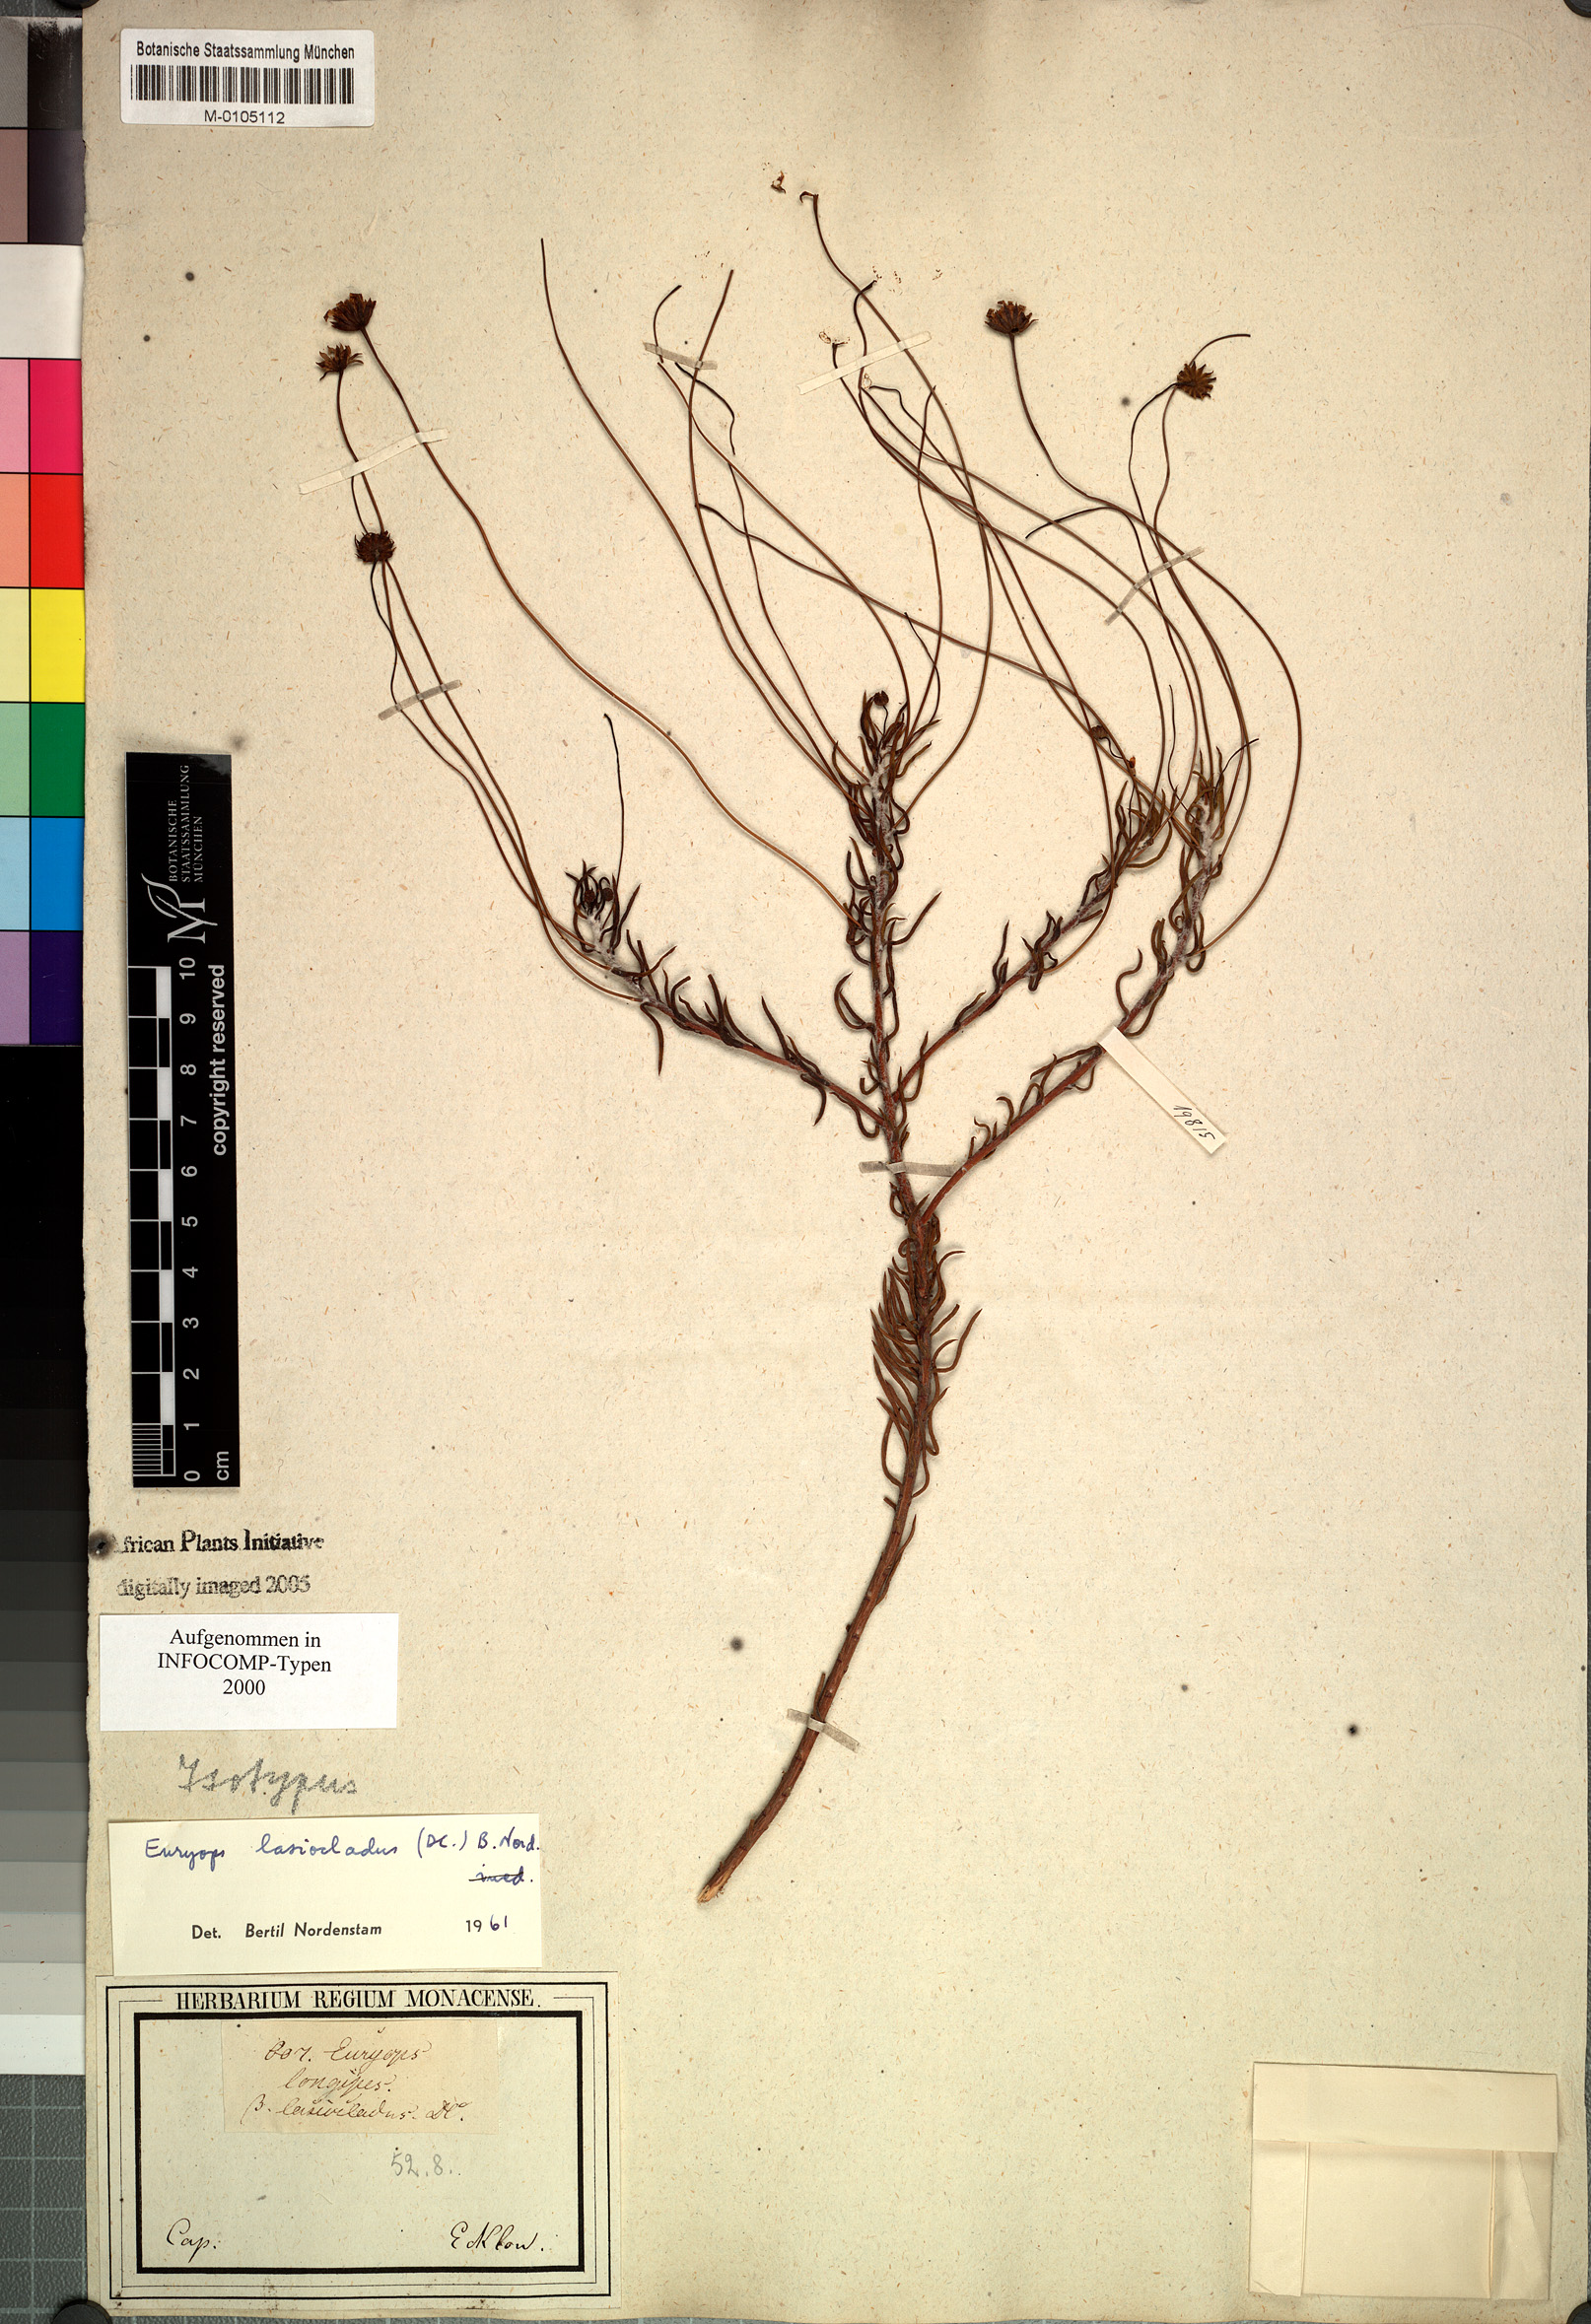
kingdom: Plantae
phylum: Tracheophyta
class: Magnoliopsida
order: Asterales
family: Asteraceae
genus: Euryops
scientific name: Euryops lasiocladus
